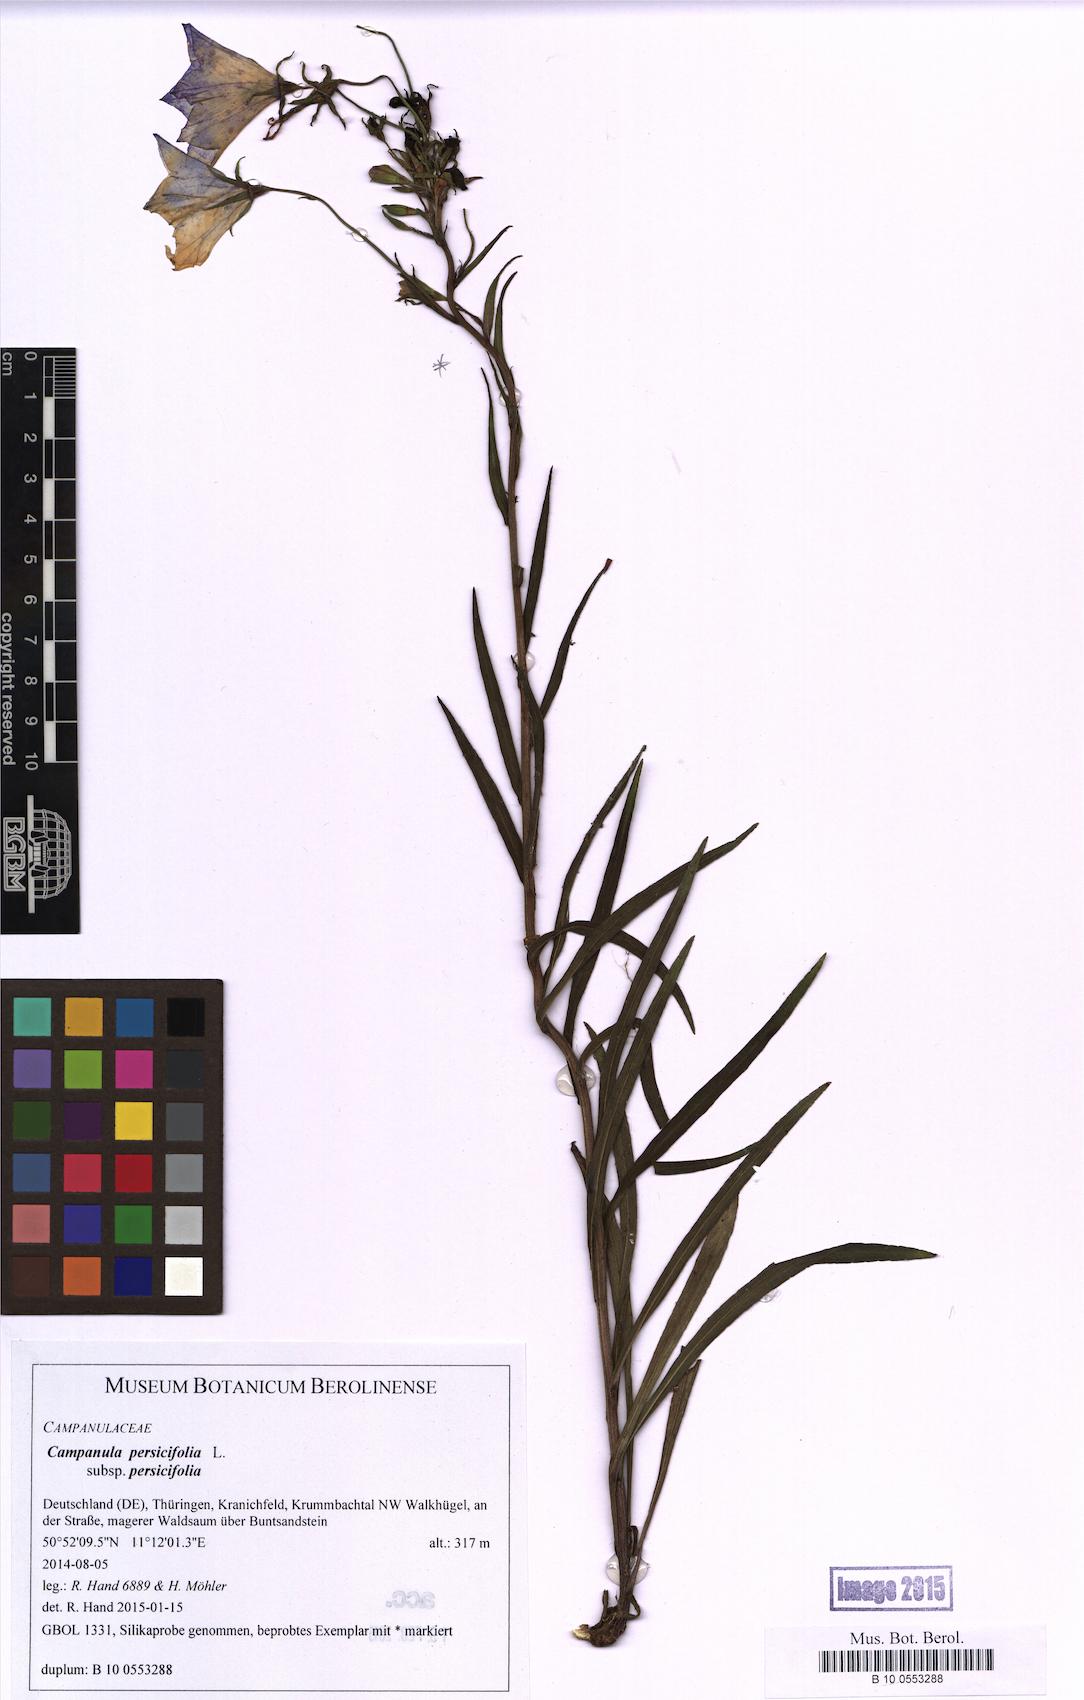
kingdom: Plantae
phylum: Tracheophyta
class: Magnoliopsida
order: Asterales
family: Campanulaceae
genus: Campanula
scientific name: Campanula persicifolia
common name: Peach-leaved bellflower
